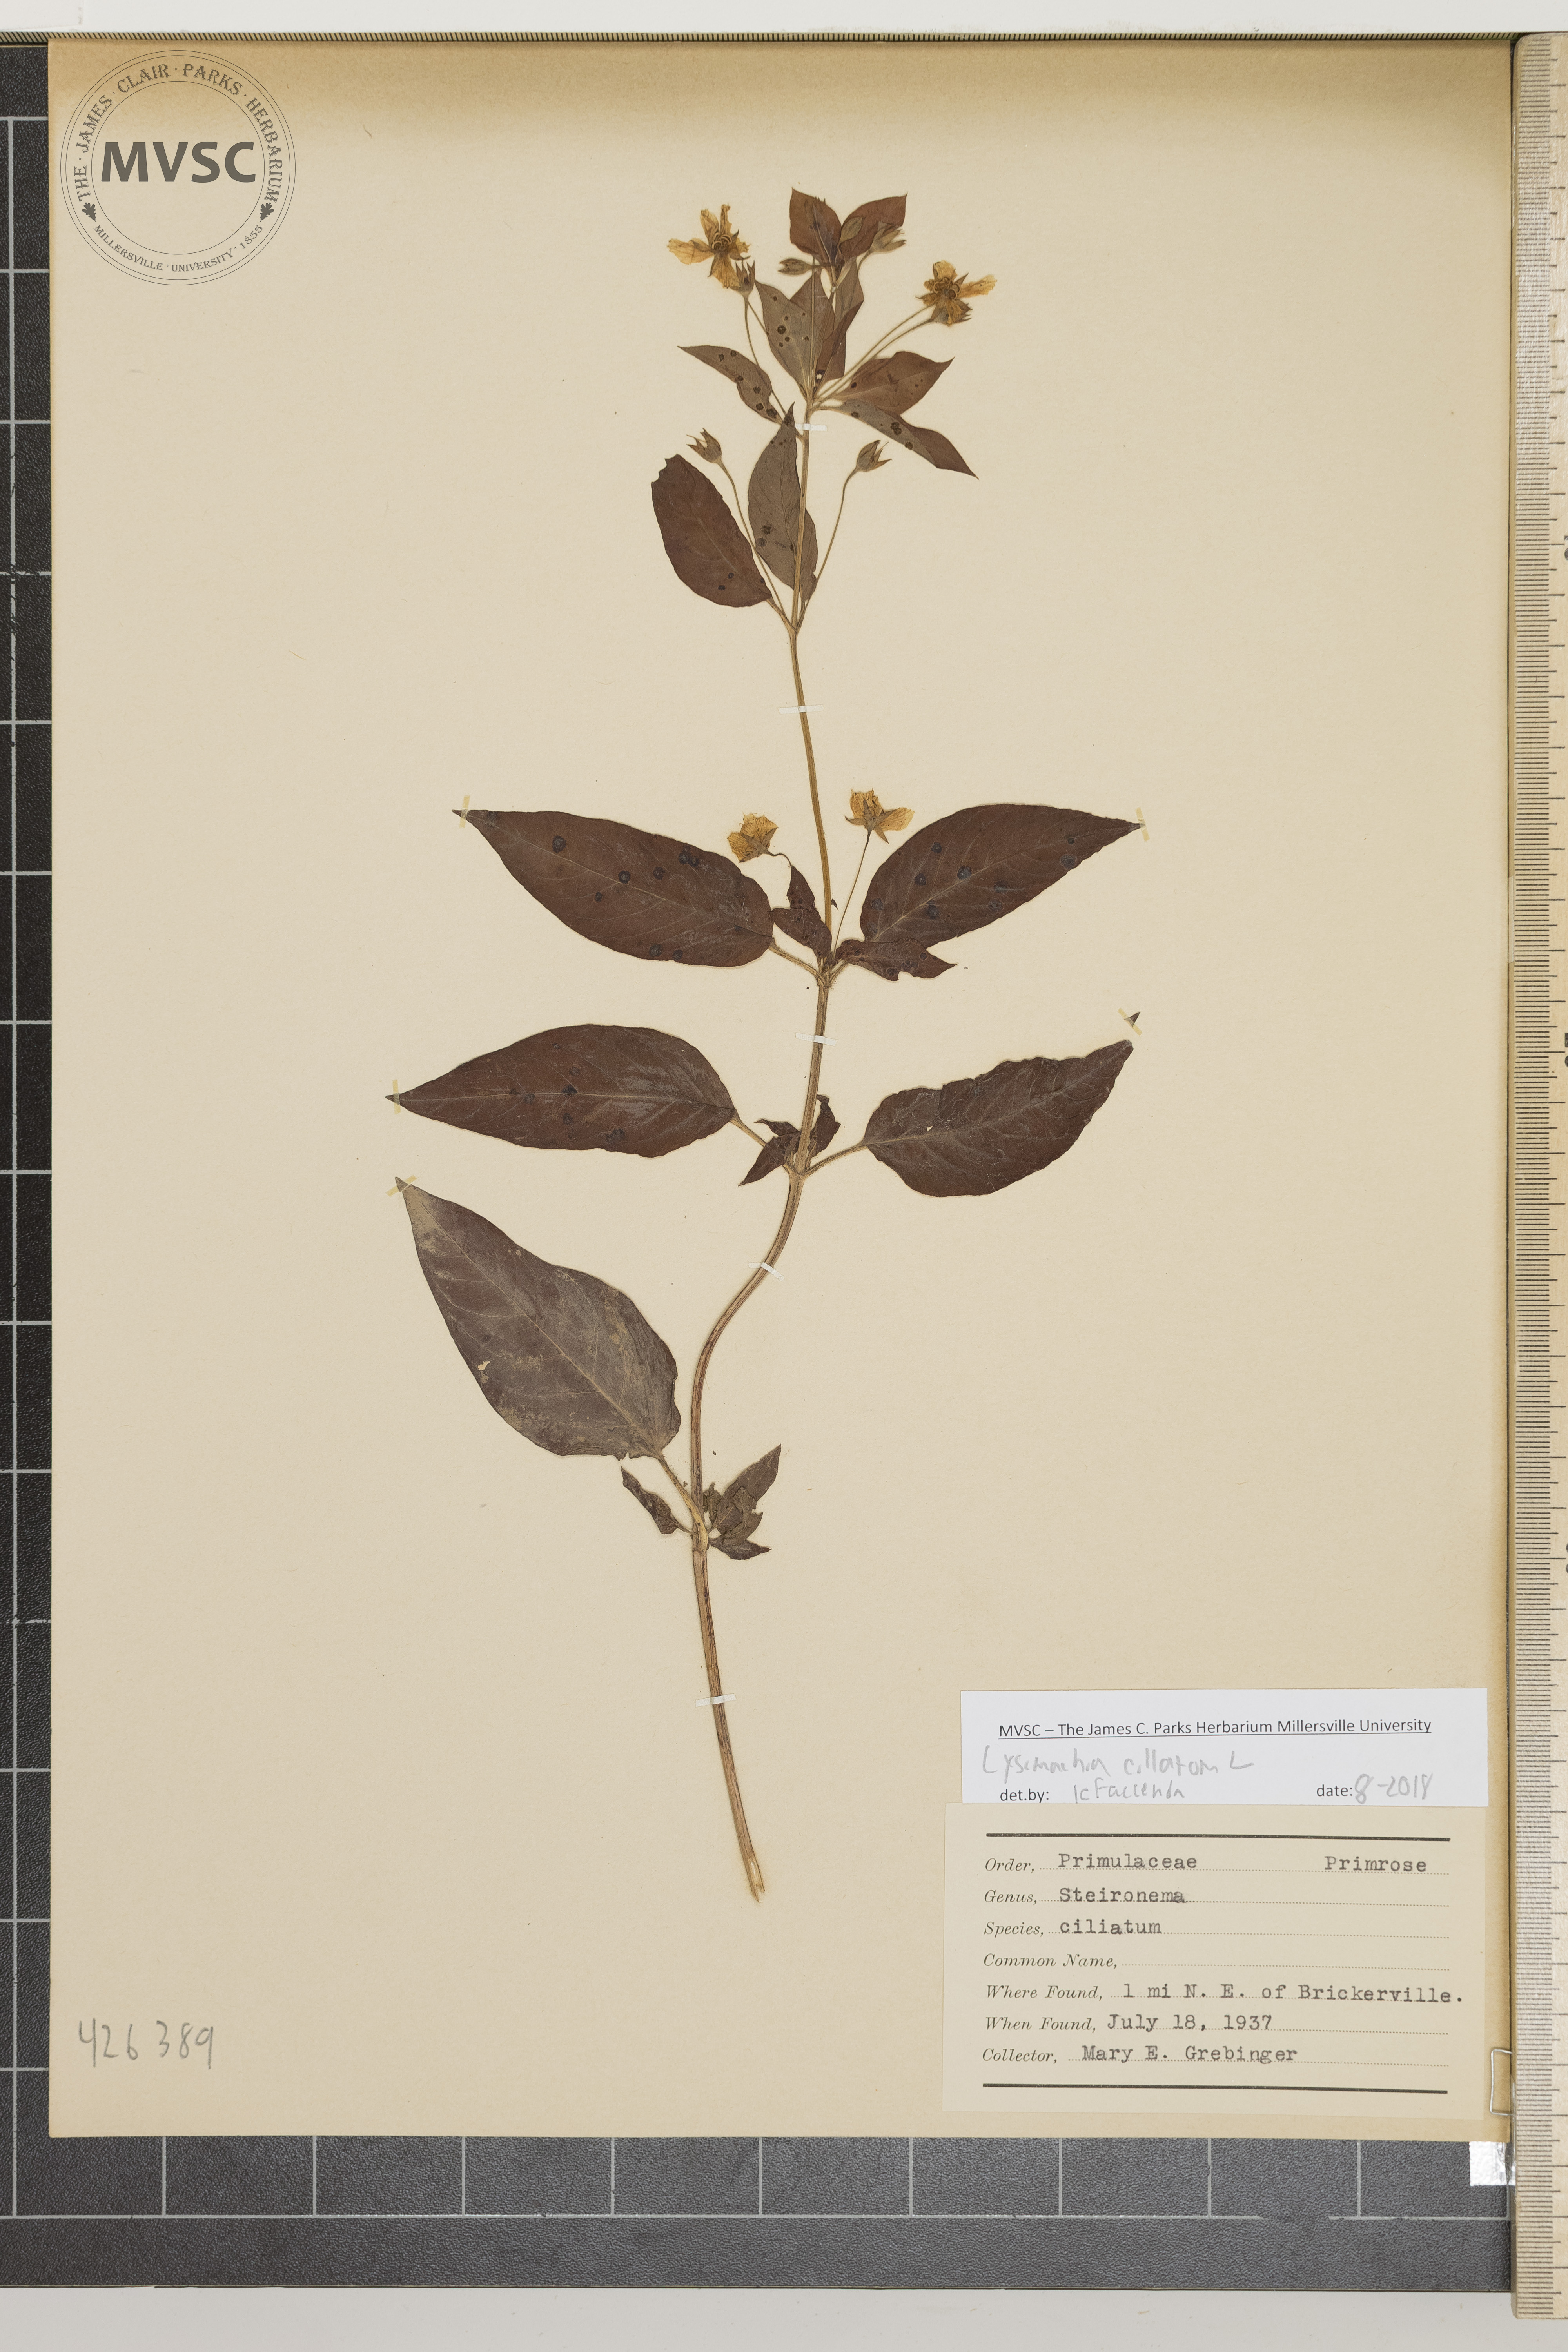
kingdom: Plantae
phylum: Tracheophyta
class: Magnoliopsida
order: Ericales
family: Primulaceae
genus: Lysimachia
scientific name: Lysimachia ciliata
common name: Fringed loosestrife
